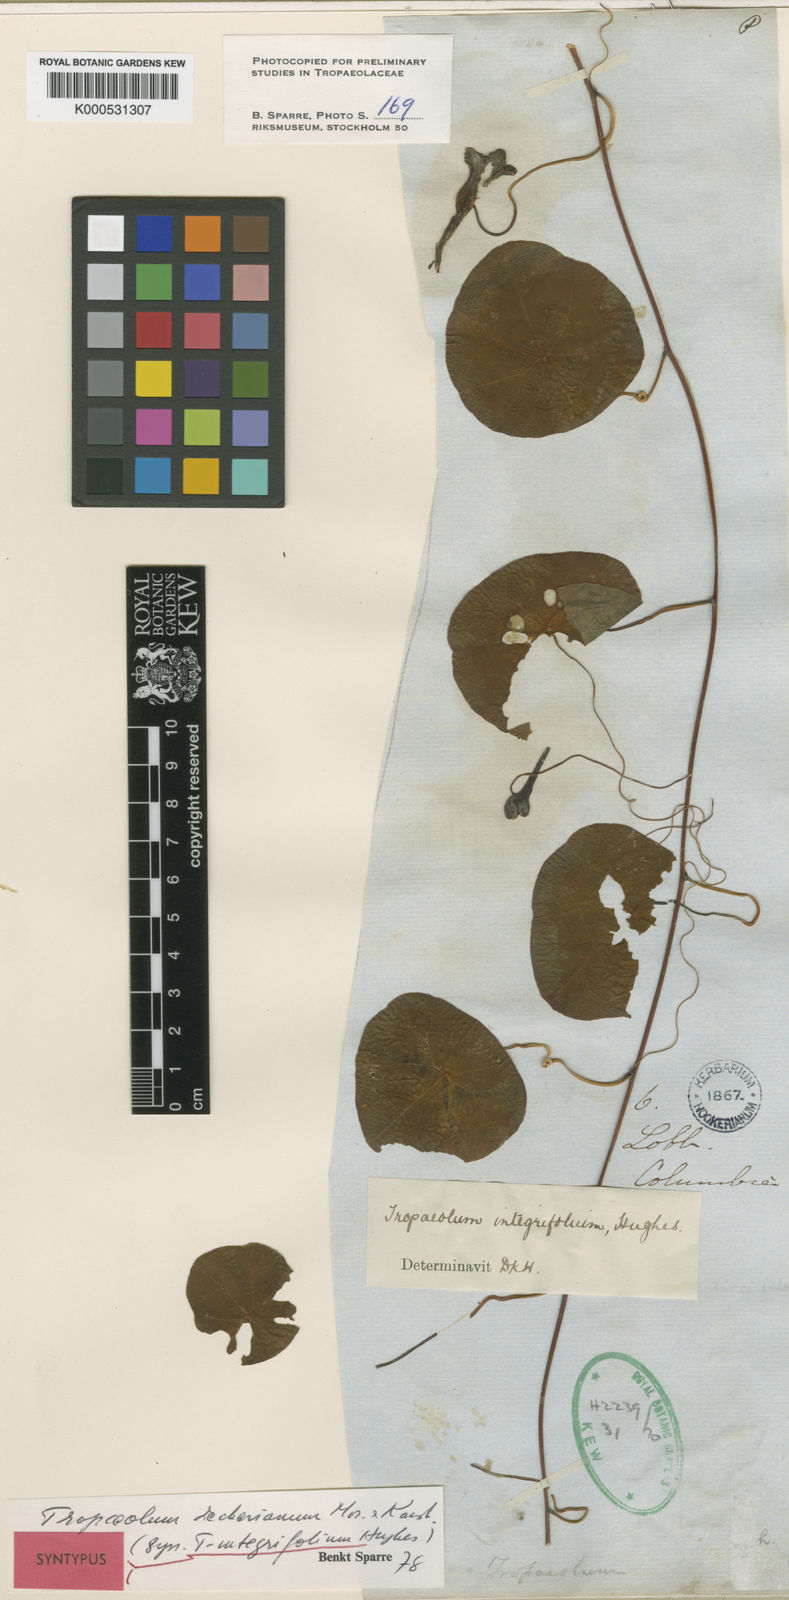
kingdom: Plantae
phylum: Tracheophyta
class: Magnoliopsida
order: Brassicales
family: Tropaeolaceae
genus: Tropaeolum
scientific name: Tropaeolum deckerianum
